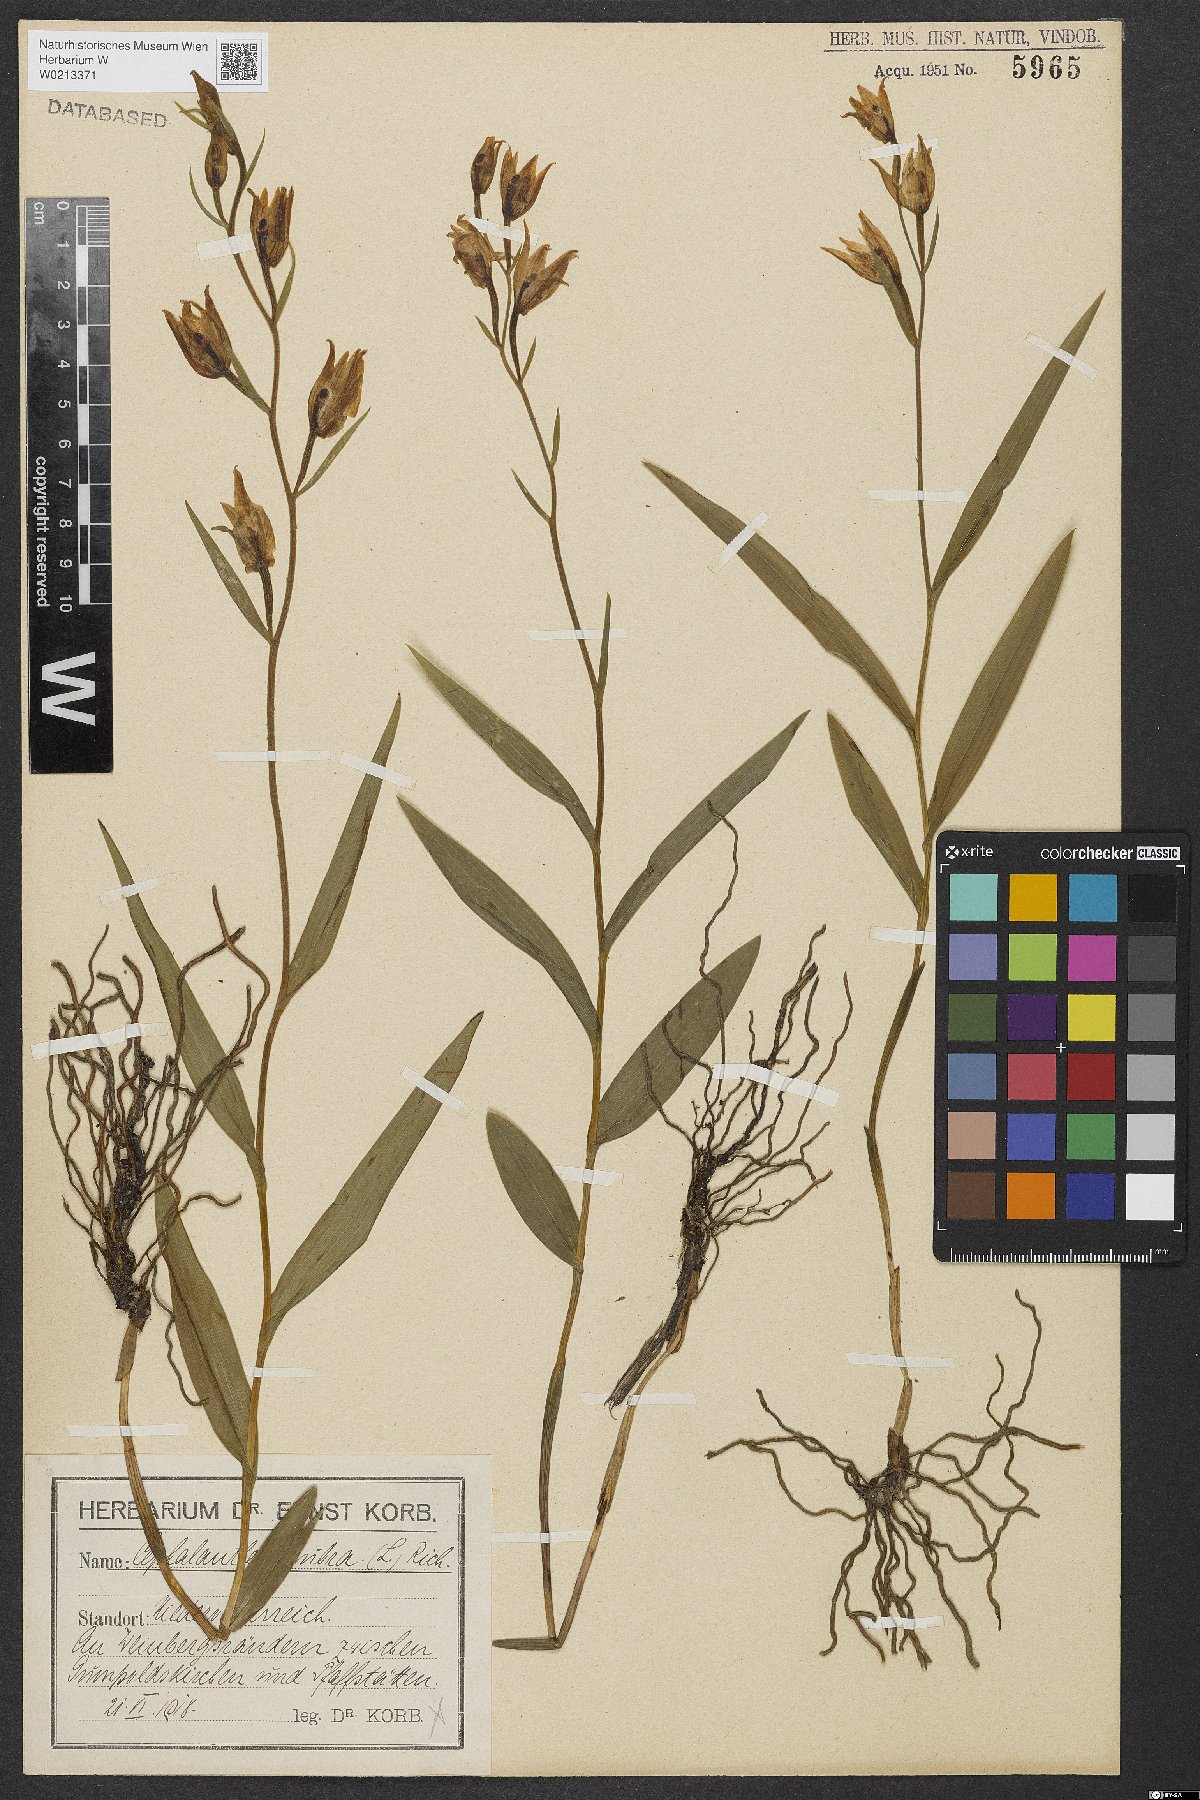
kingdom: Plantae
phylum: Tracheophyta
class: Liliopsida
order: Asparagales
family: Orchidaceae
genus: Cephalanthera
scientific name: Cephalanthera rubra
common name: Red helleborine
